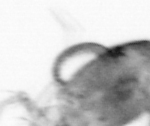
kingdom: Animalia
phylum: Arthropoda
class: Copepoda
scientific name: Copepoda
